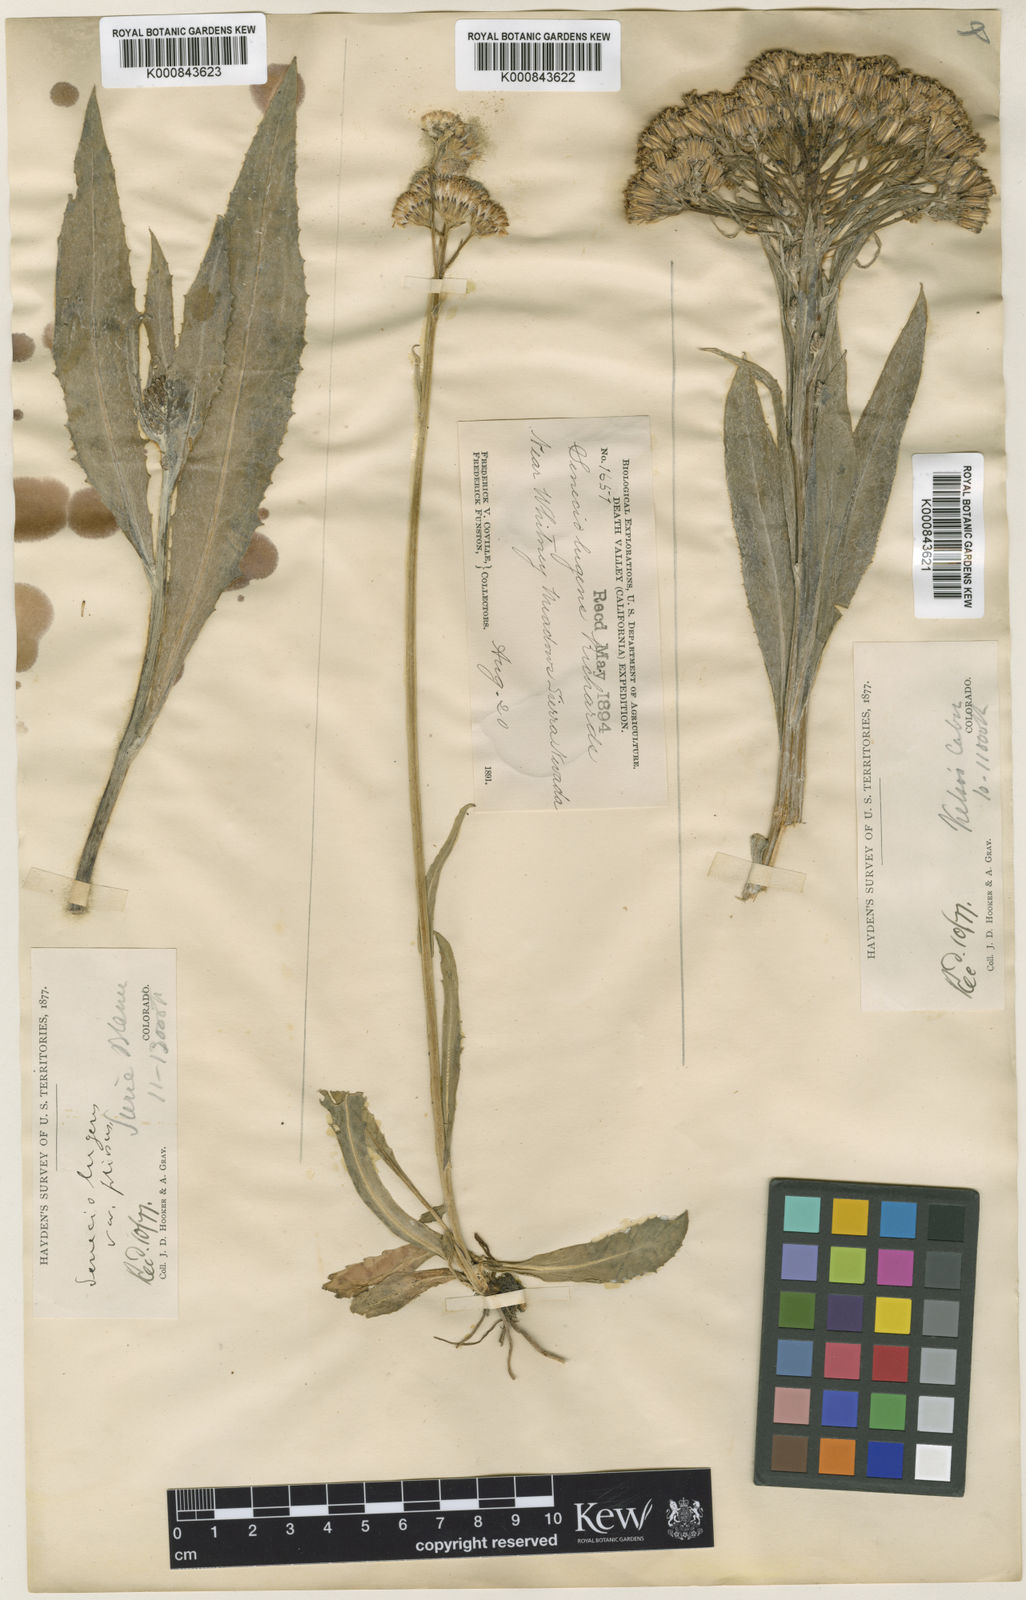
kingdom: Plantae
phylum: Tracheophyta
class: Magnoliopsida
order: Asterales
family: Asteraceae
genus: Senecio
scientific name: Senecio lugens
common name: Black-tip groundsel
